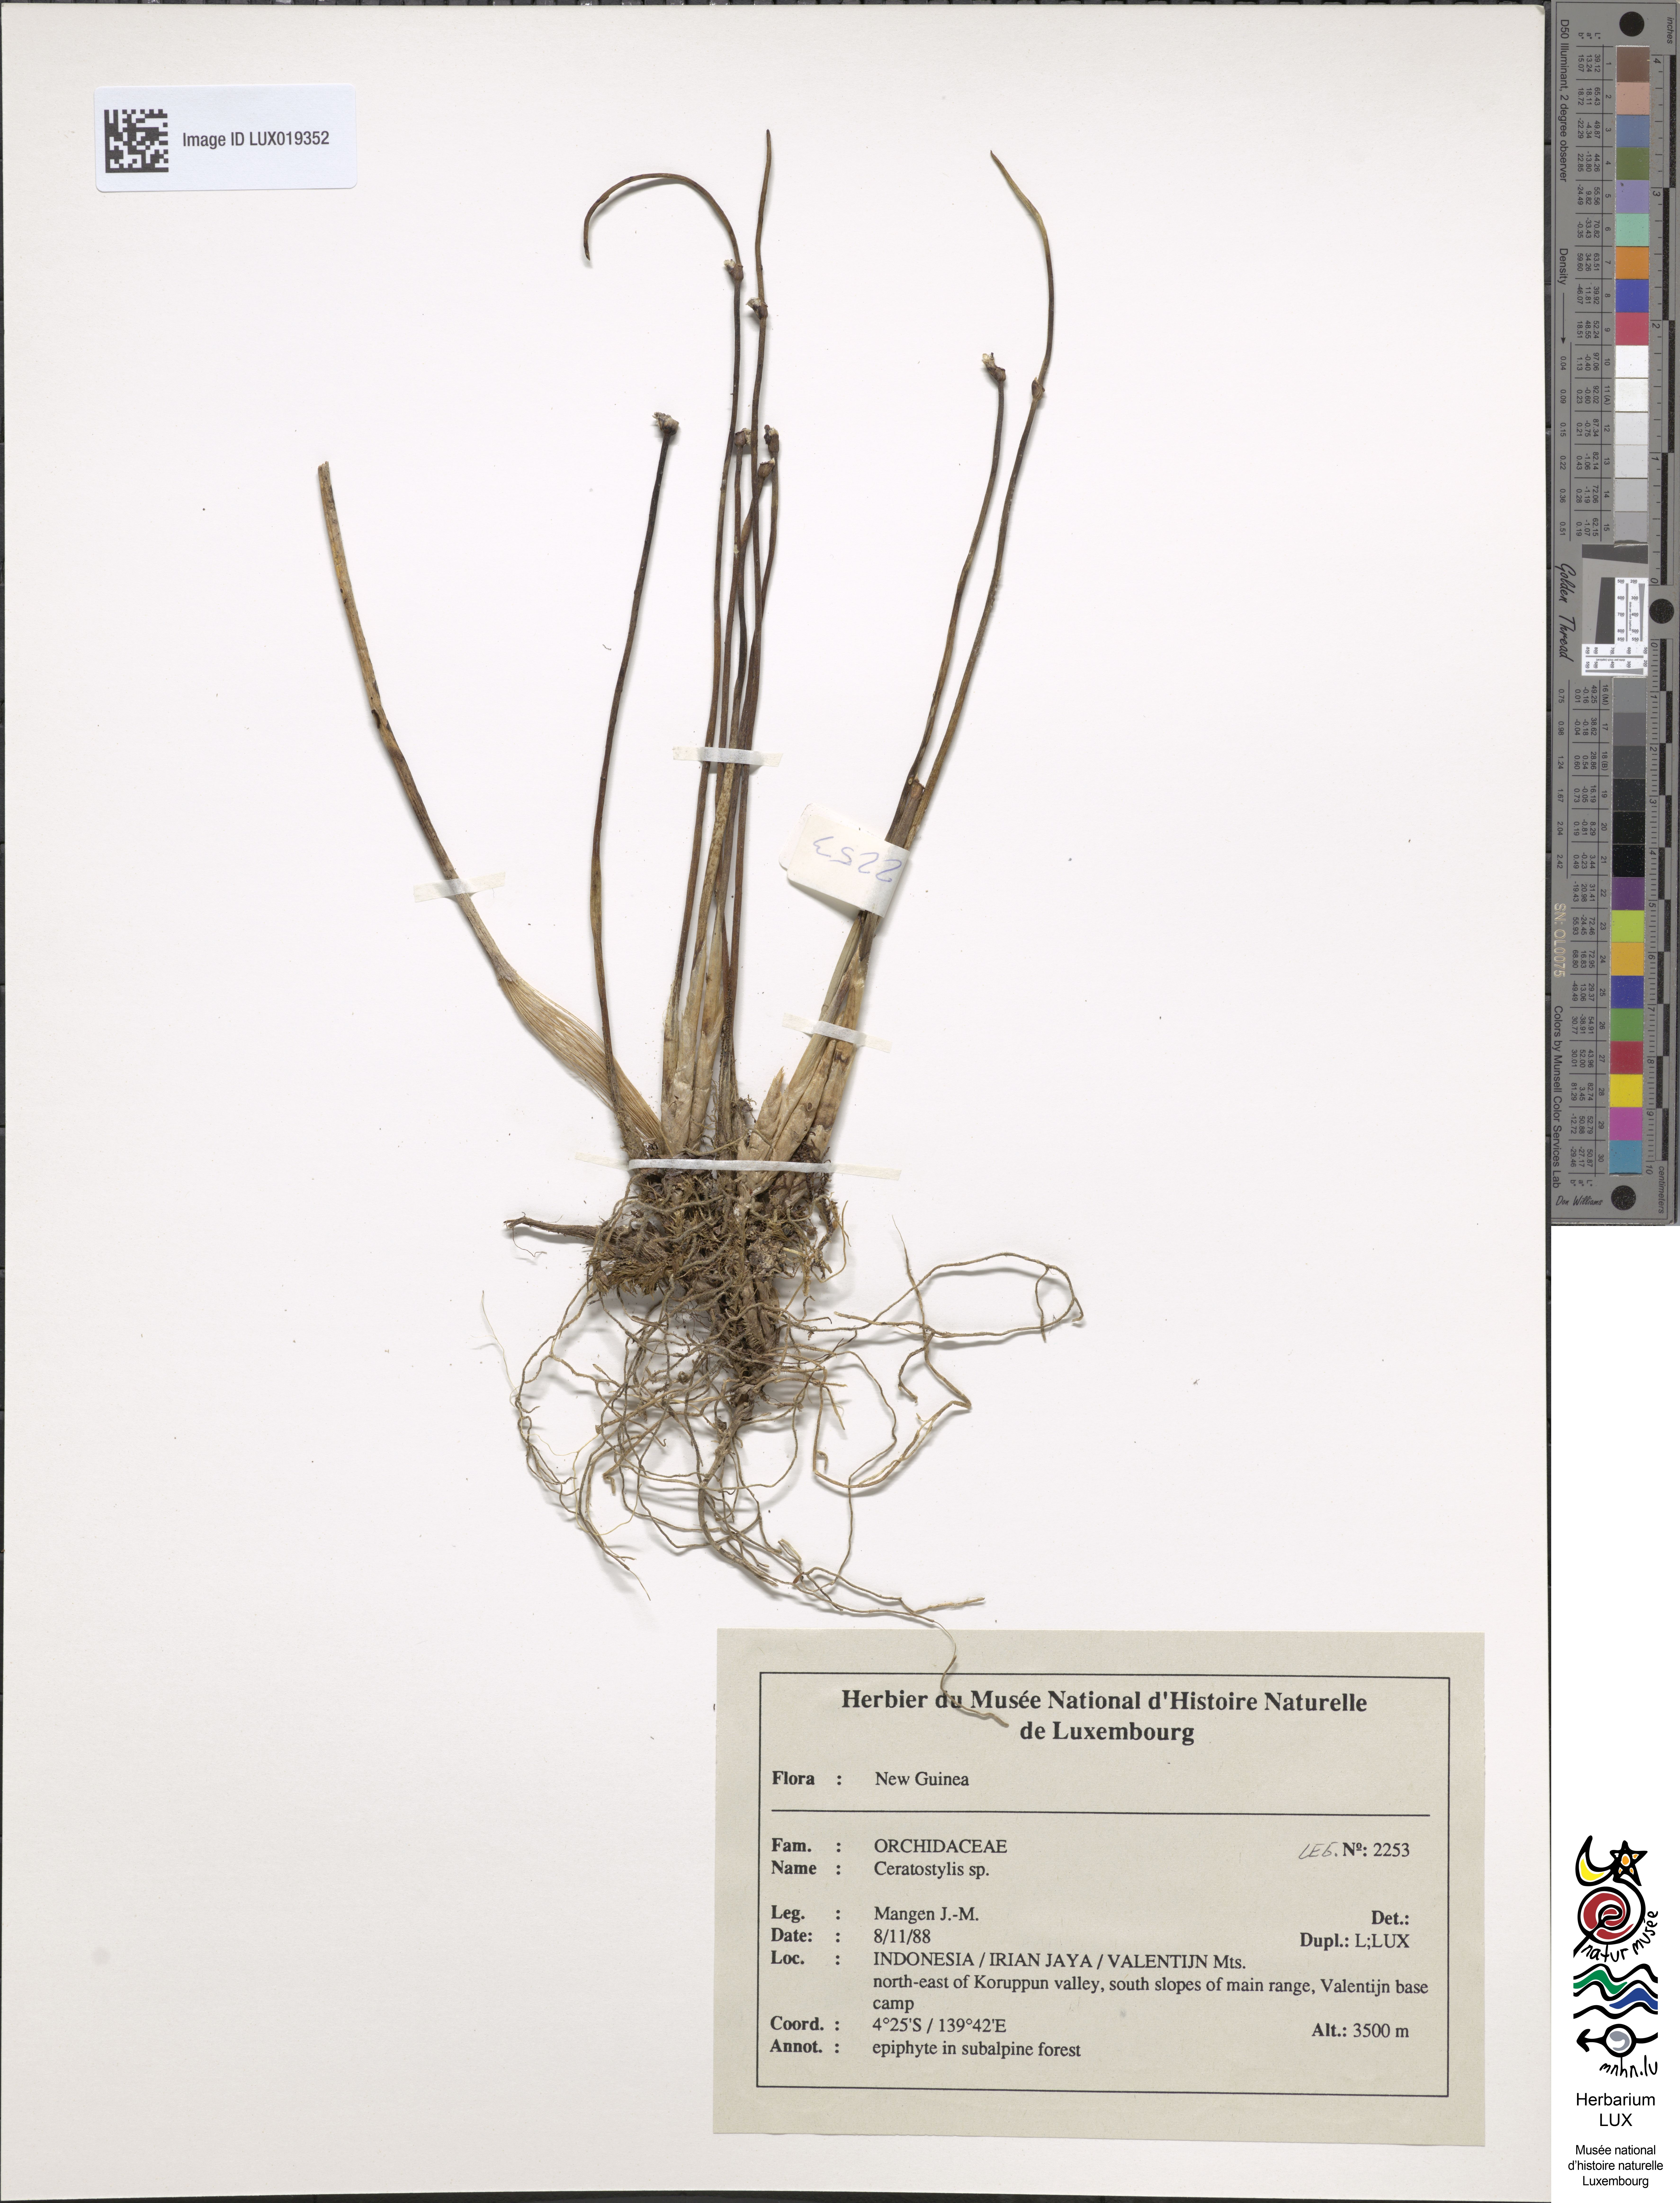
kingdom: Plantae
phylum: Tracheophyta
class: Liliopsida
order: Asparagales
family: Orchidaceae
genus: Ceratostylis
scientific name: Ceratostylis
